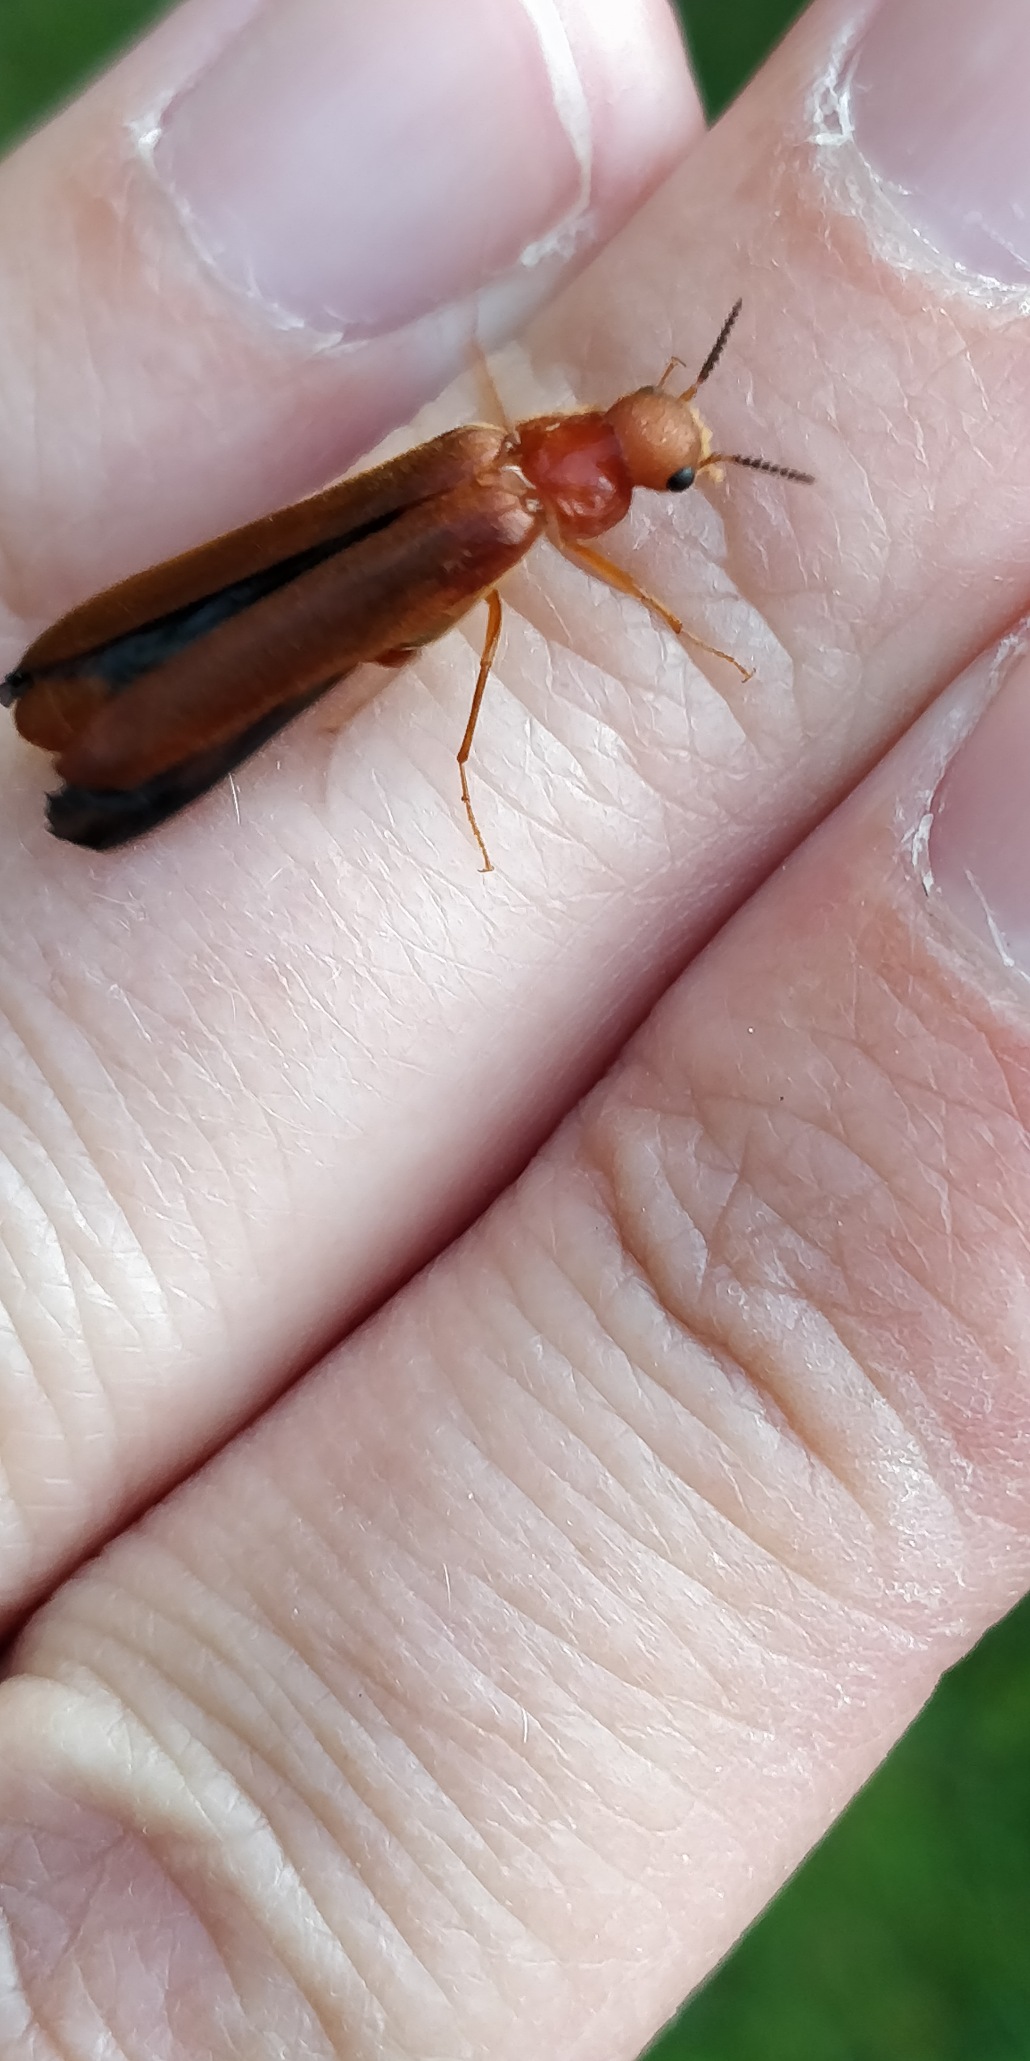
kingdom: Animalia
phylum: Arthropoda
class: Insecta
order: Coleoptera
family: Lymexylidae
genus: Hylecoetus
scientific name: Hylecoetus dermestoides
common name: Almindelig værftbille
